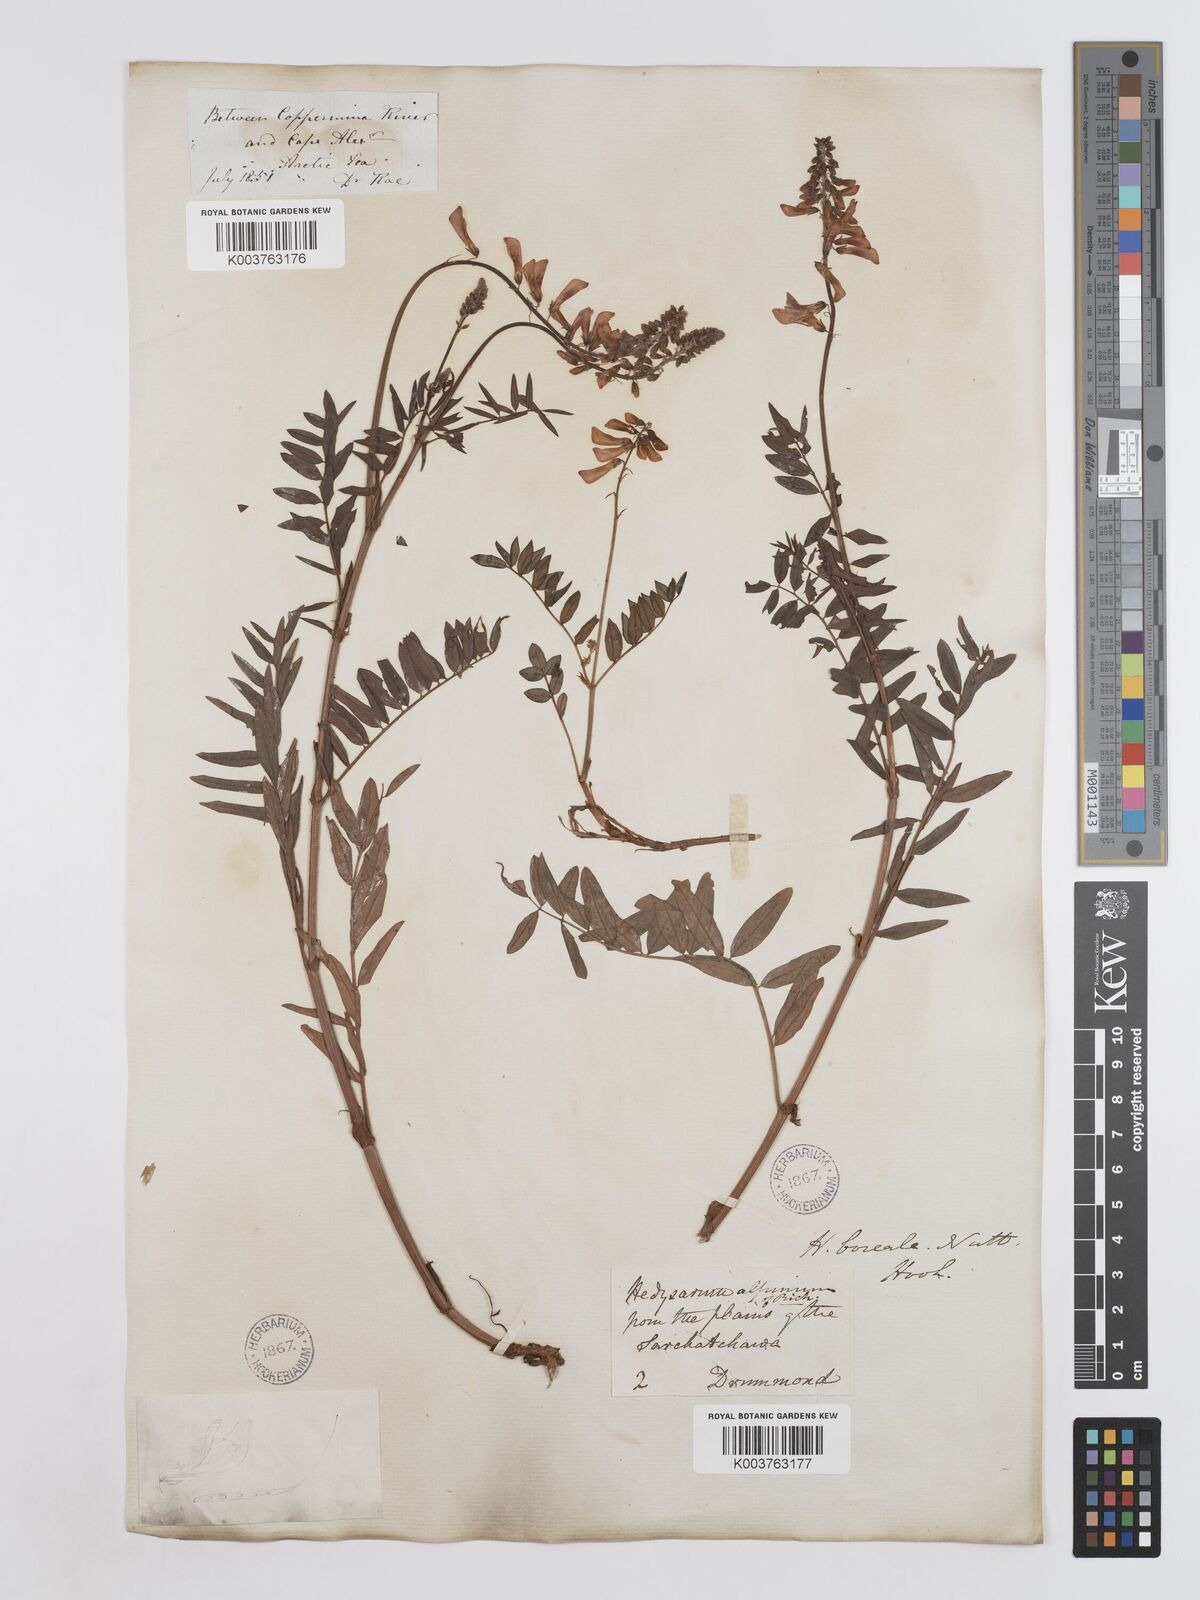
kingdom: Plantae
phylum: Tracheophyta
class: Magnoliopsida
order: Fabales
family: Fabaceae
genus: Hedysarum
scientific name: Hedysarum boreale
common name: Northern sweet-vetch
